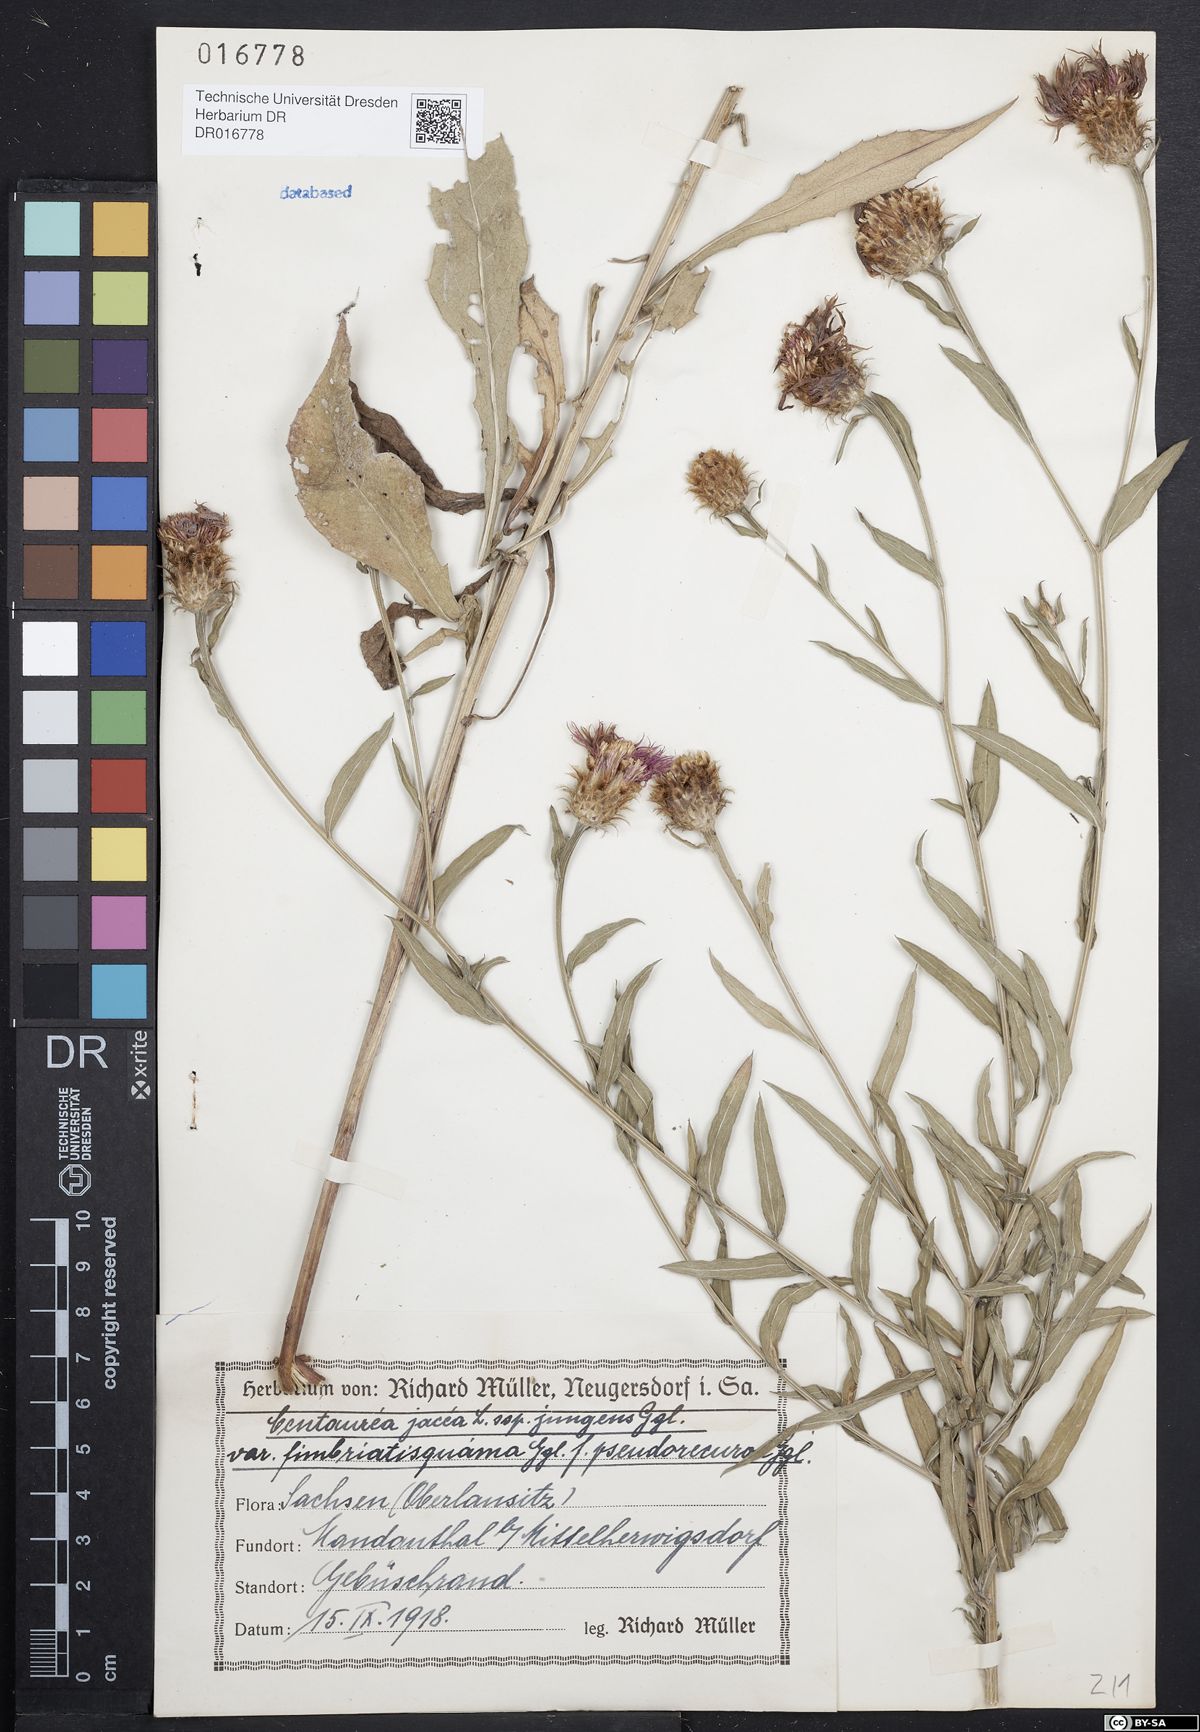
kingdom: Plantae
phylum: Tracheophyta
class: Magnoliopsida
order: Asterales
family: Asteraceae
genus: Centaurea
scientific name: Centaurea jacea
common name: Brown knapweed
